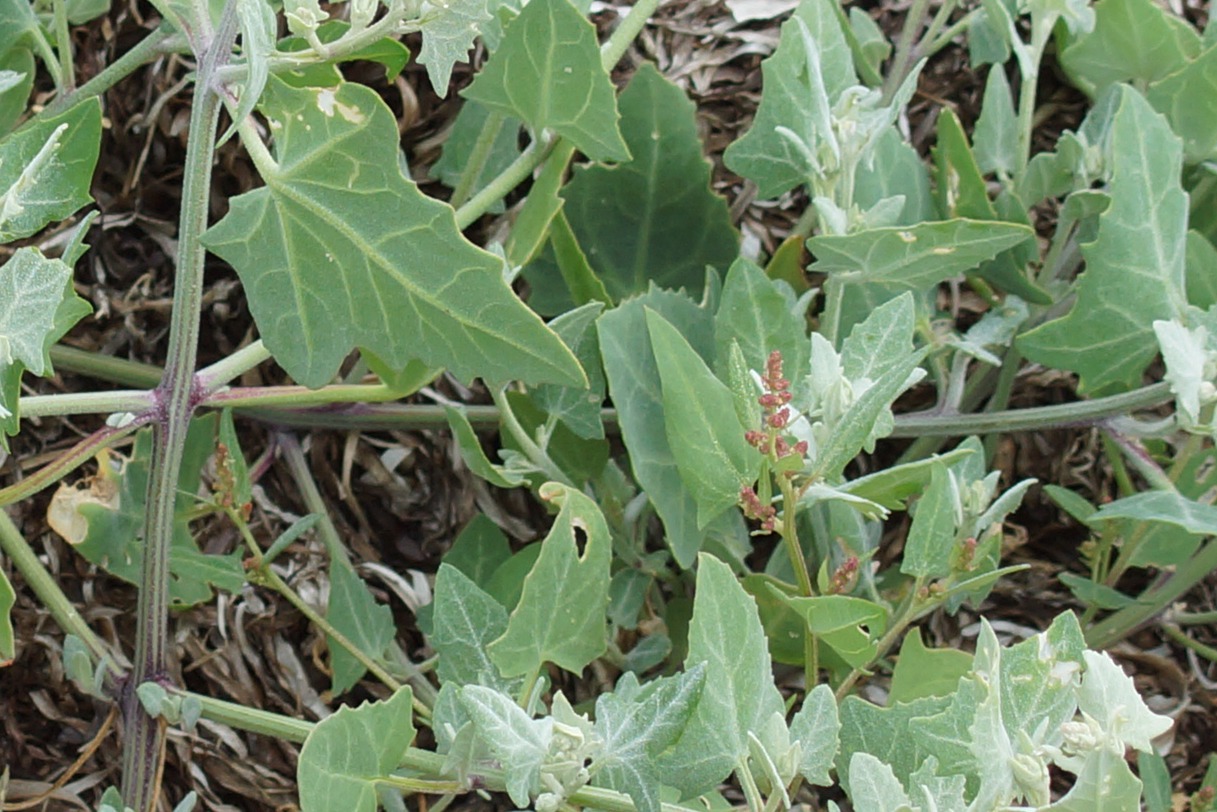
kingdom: Plantae
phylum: Tracheophyta
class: Magnoliopsida
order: Caryophyllales
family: Amaranthaceae
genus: Atriplex
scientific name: Atriplex prostrata
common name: Spyd-mælde
